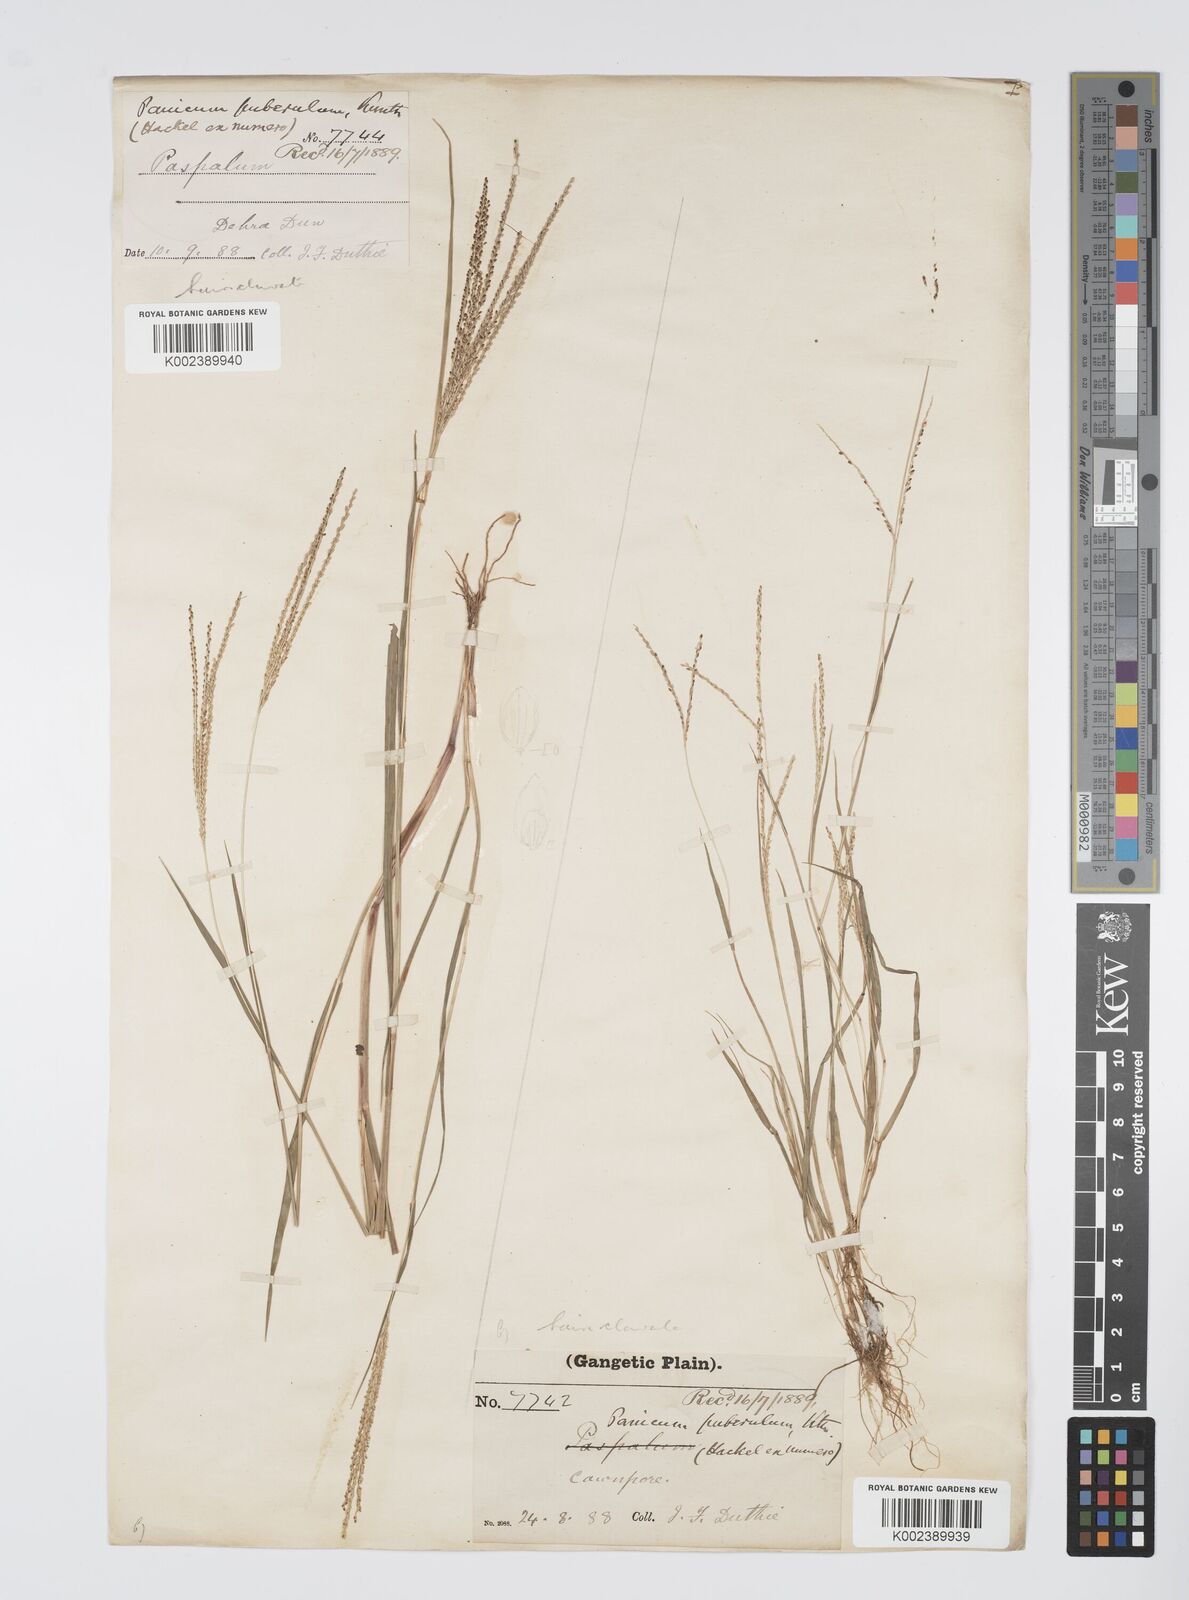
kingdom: Plantae
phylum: Tracheophyta
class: Liliopsida
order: Poales
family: Poaceae
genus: Digitaria
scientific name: Digitaria stricta
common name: Crabgrass
